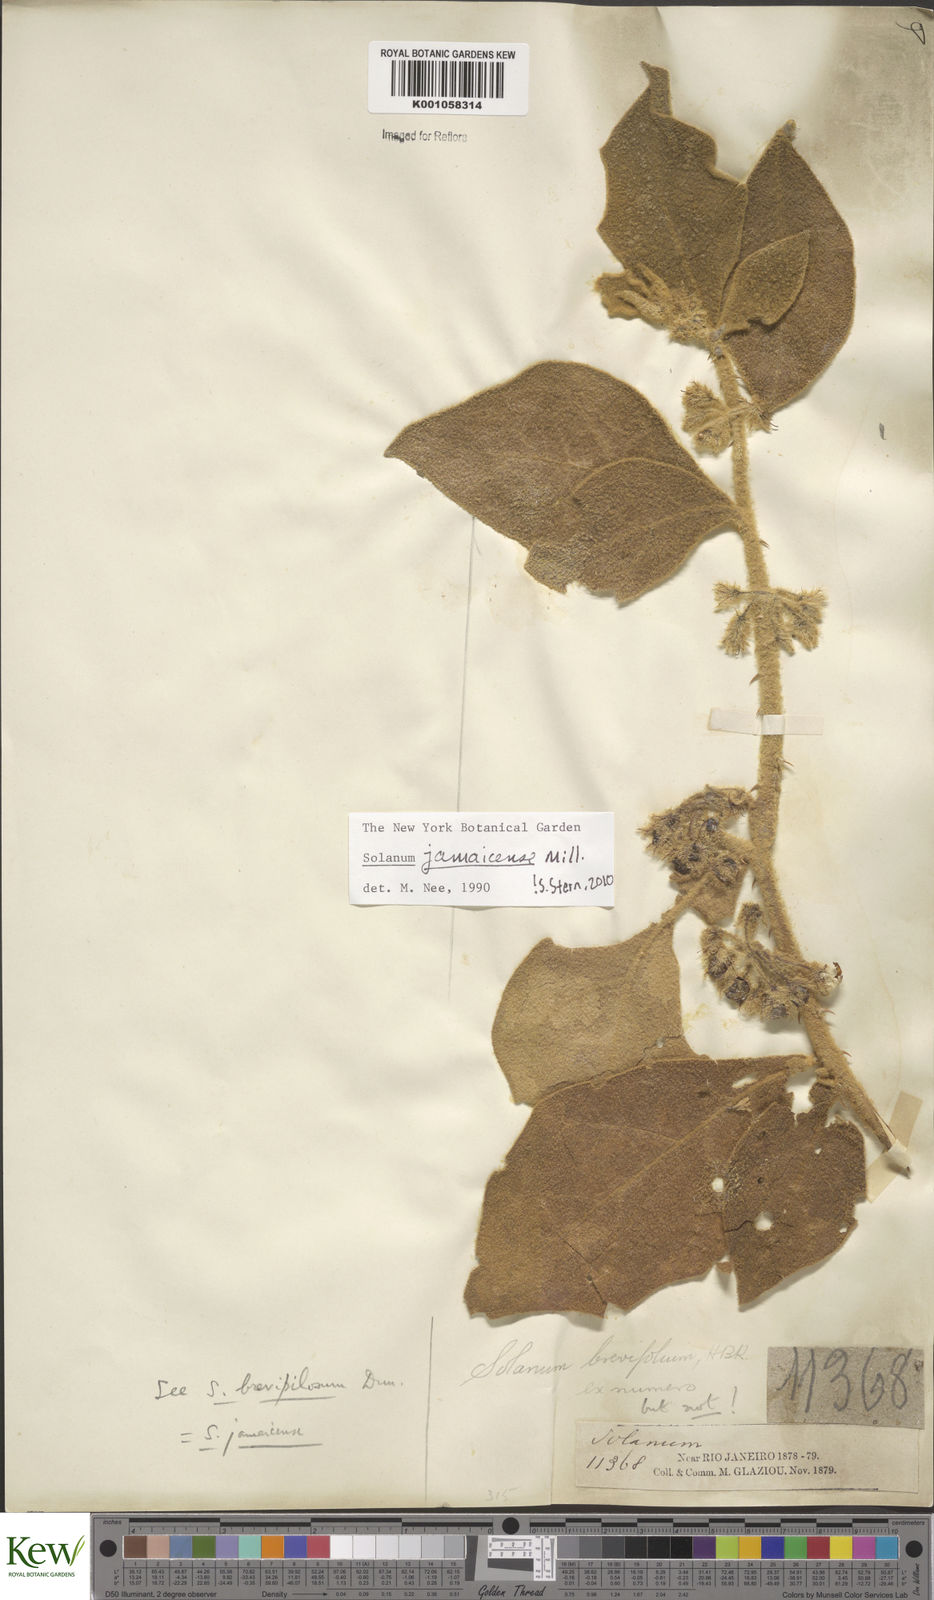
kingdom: Plantae
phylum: Tracheophyta
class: Magnoliopsida
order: Solanales
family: Solanaceae
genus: Solanum
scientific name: Solanum jamaicense
